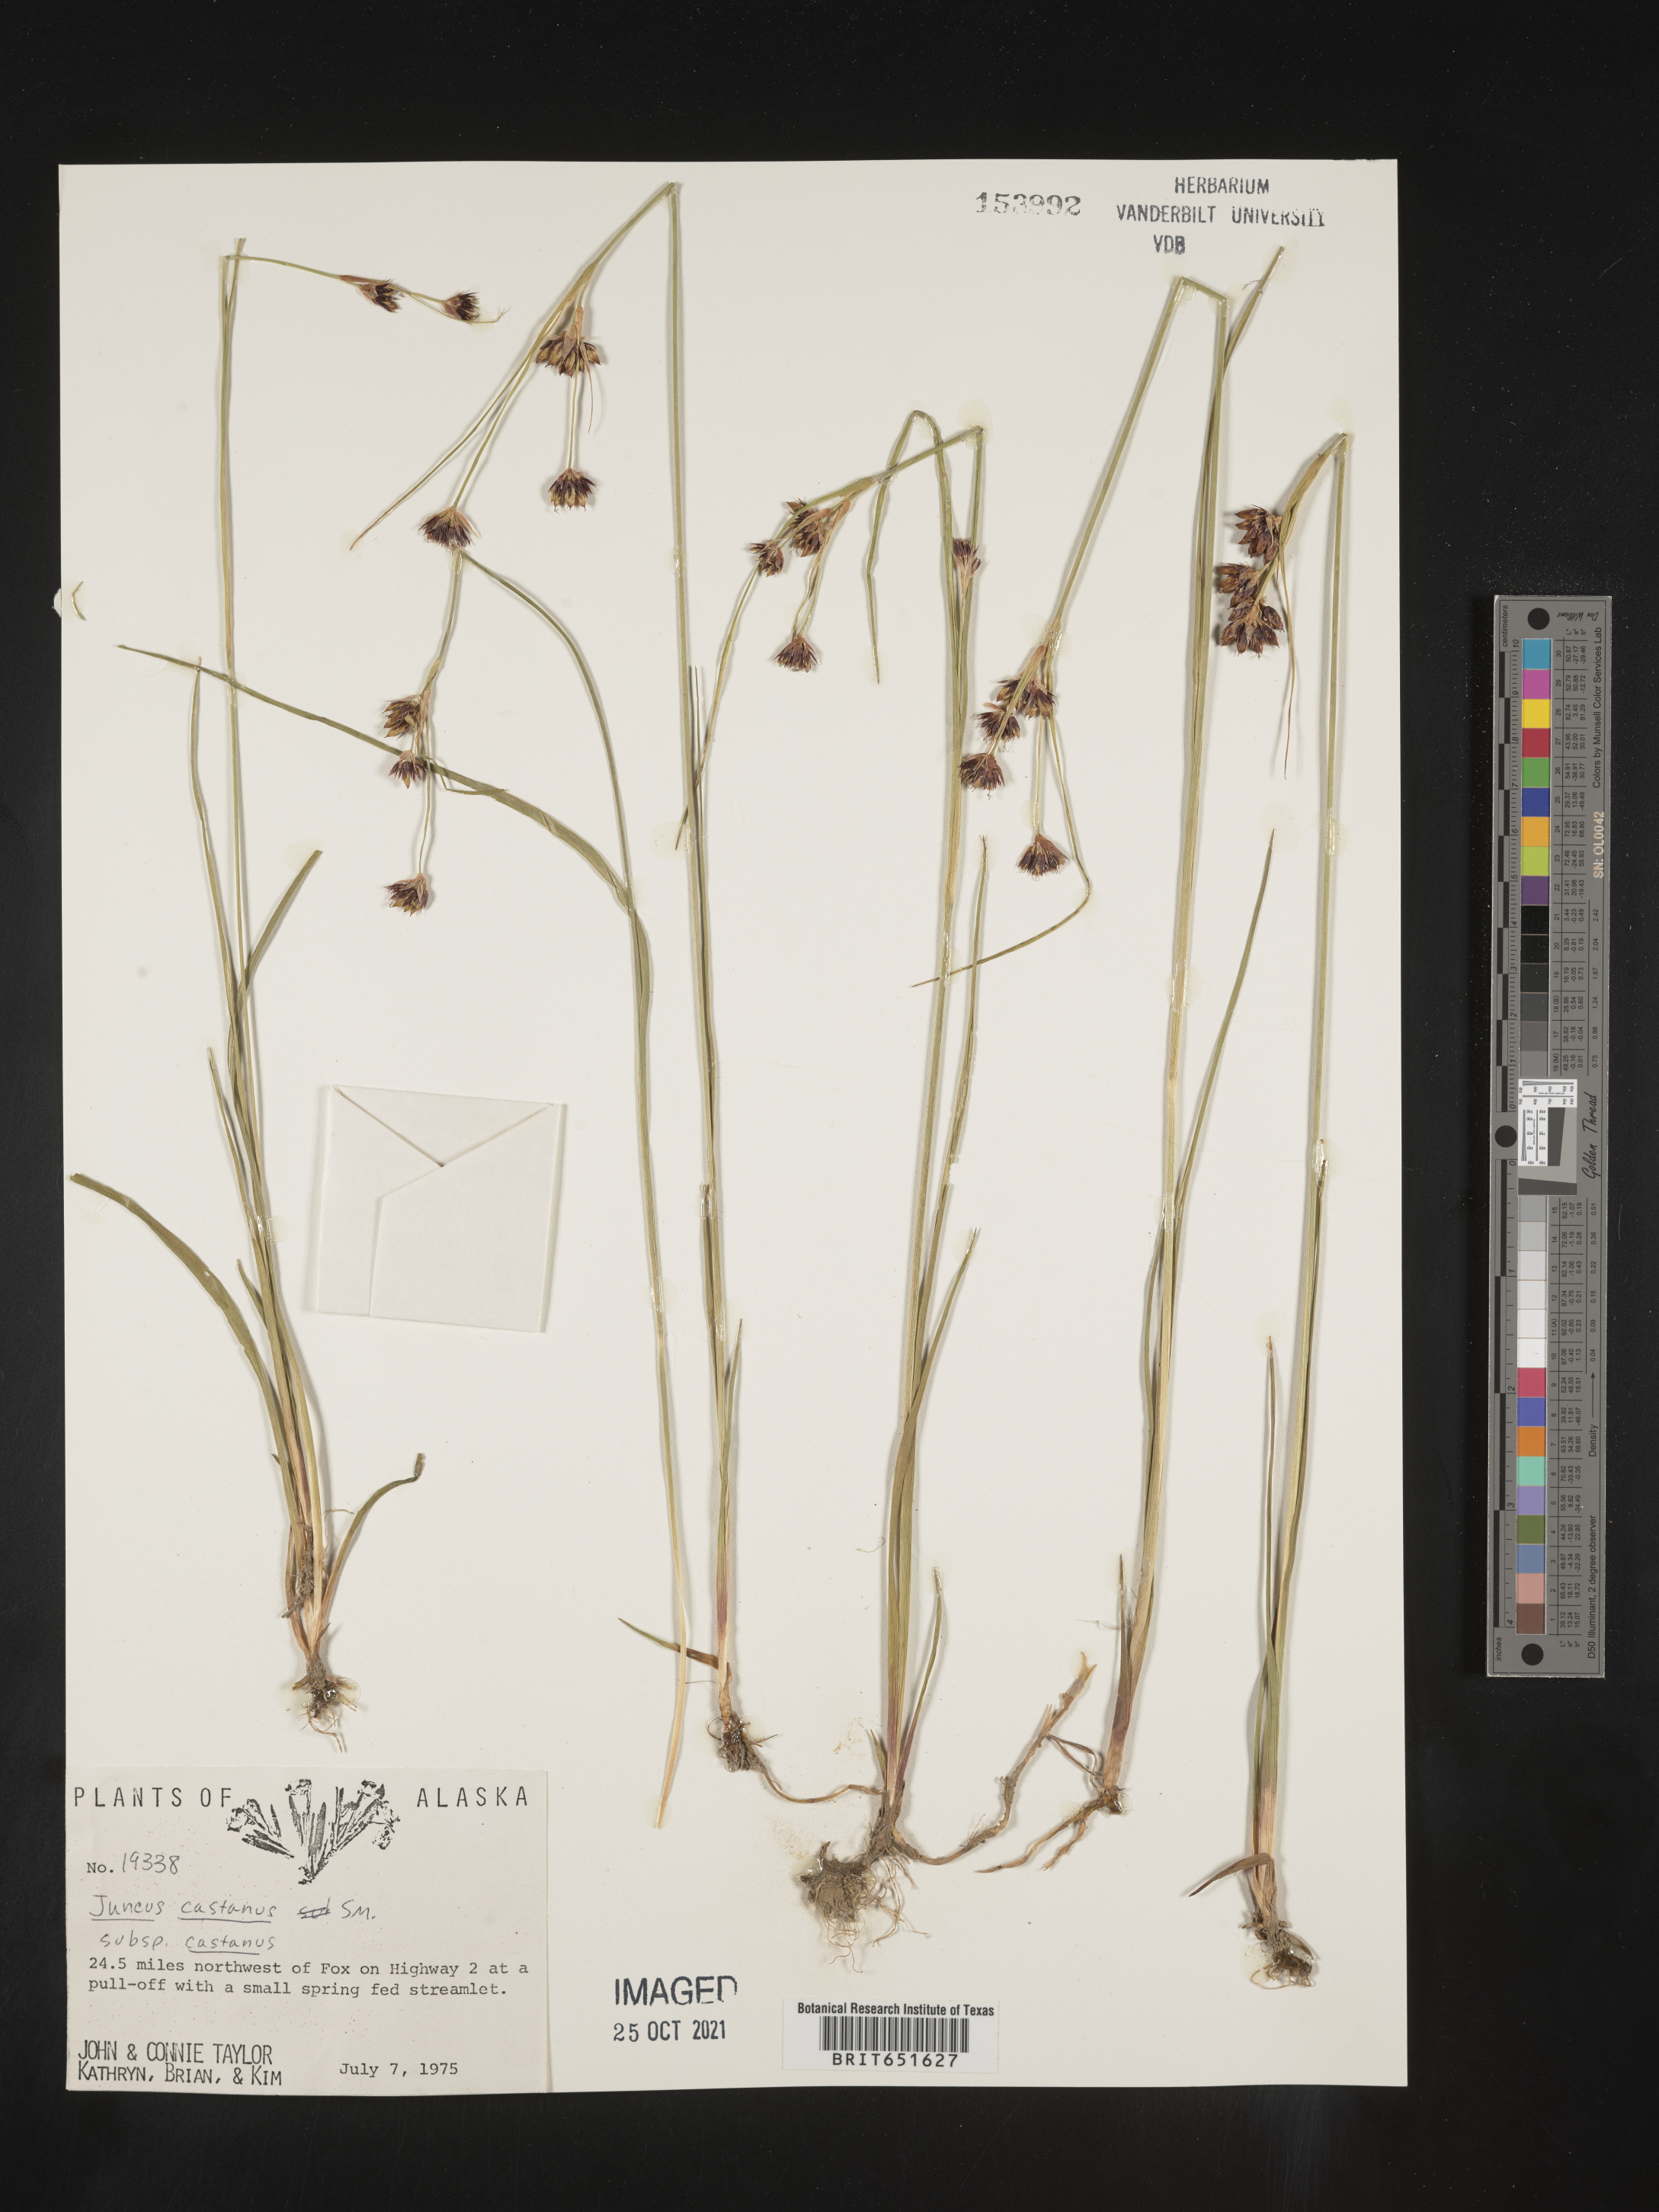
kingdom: Plantae
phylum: Tracheophyta
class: Liliopsida
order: Poales
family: Juncaceae
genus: Juncus
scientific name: Juncus castaneus
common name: Chestnut rush
